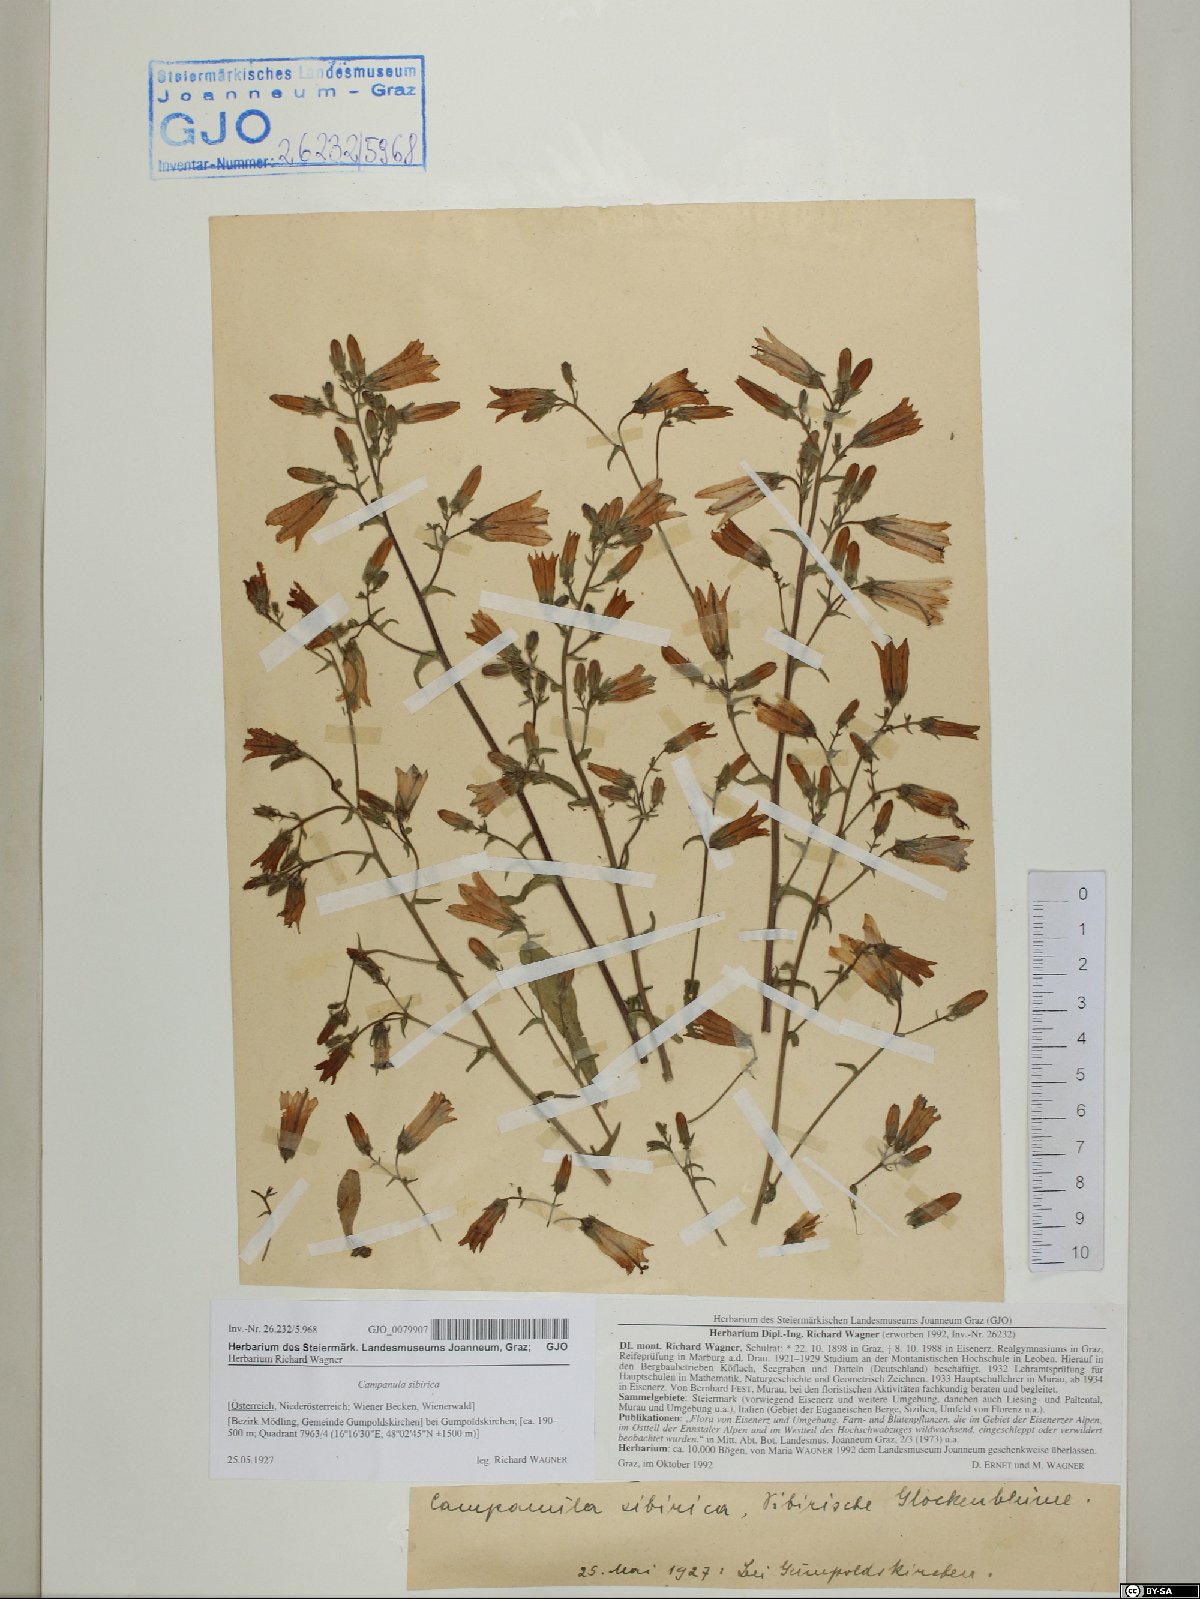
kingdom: Plantae
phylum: Tracheophyta
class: Magnoliopsida
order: Asterales
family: Campanulaceae
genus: Campanula
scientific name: Campanula sibirica
